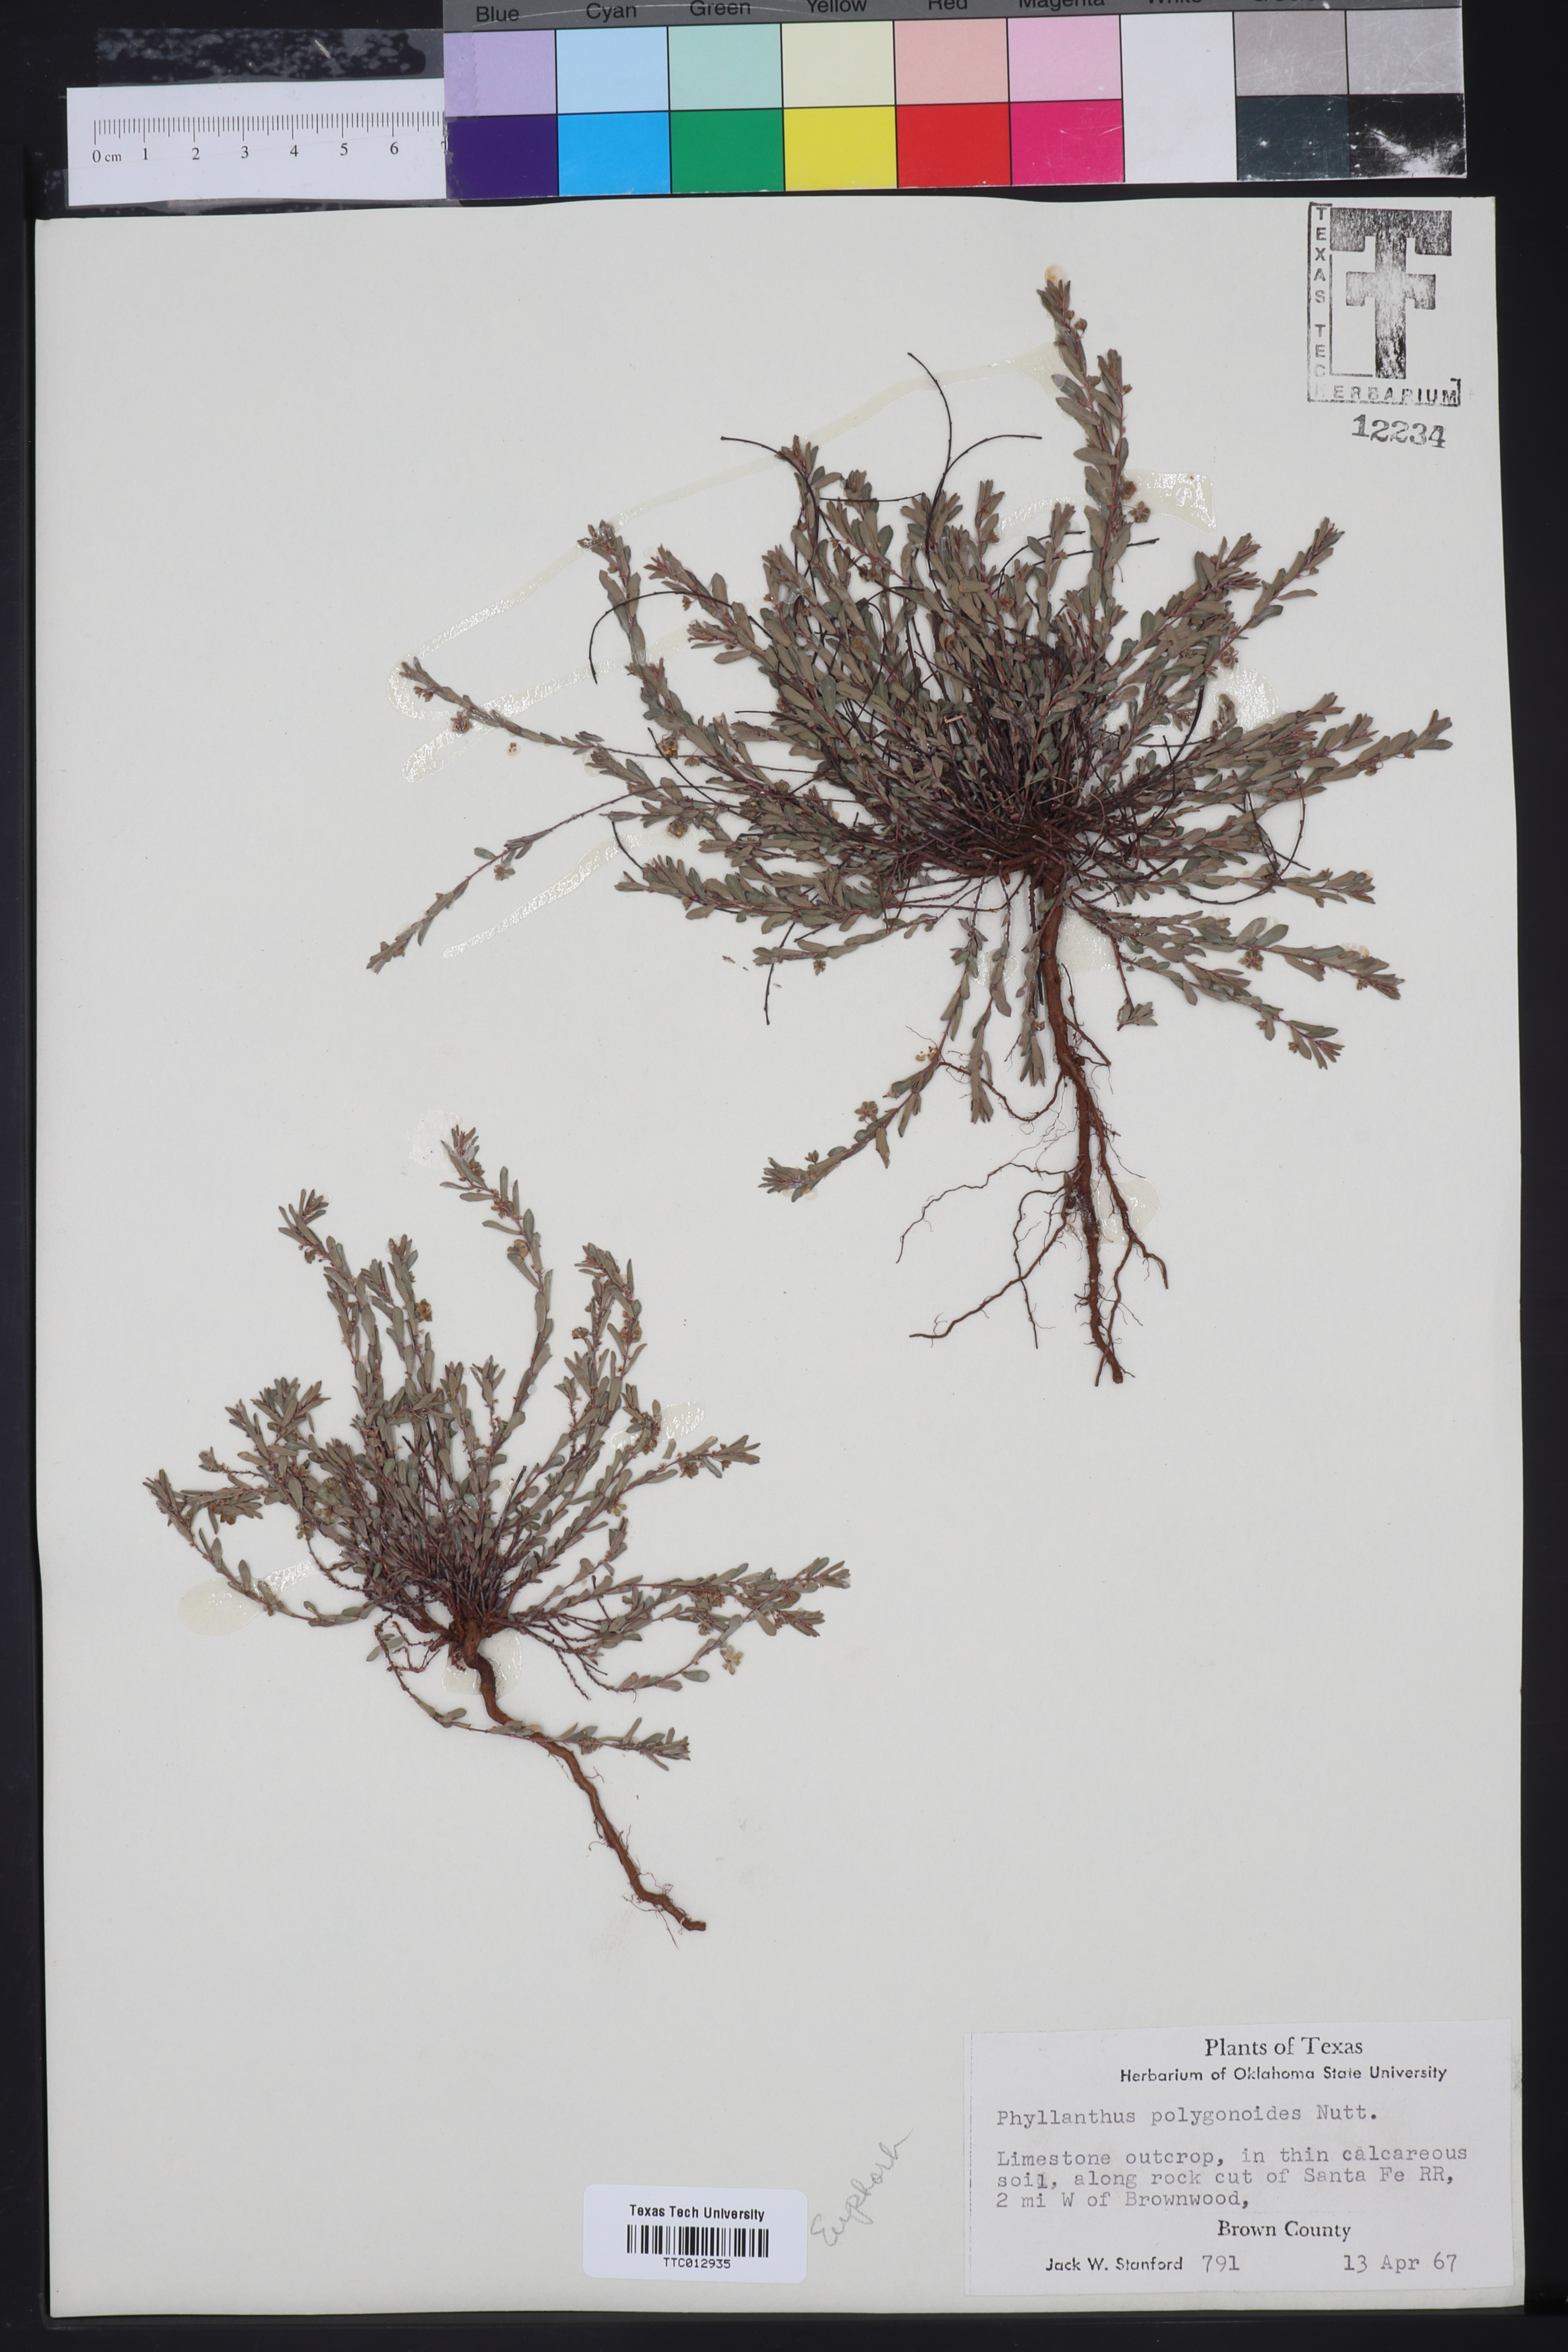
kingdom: Plantae
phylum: Tracheophyta
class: Magnoliopsida
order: Malpighiales
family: Phyllanthaceae
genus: Phyllanthus
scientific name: Phyllanthus polygonoides
